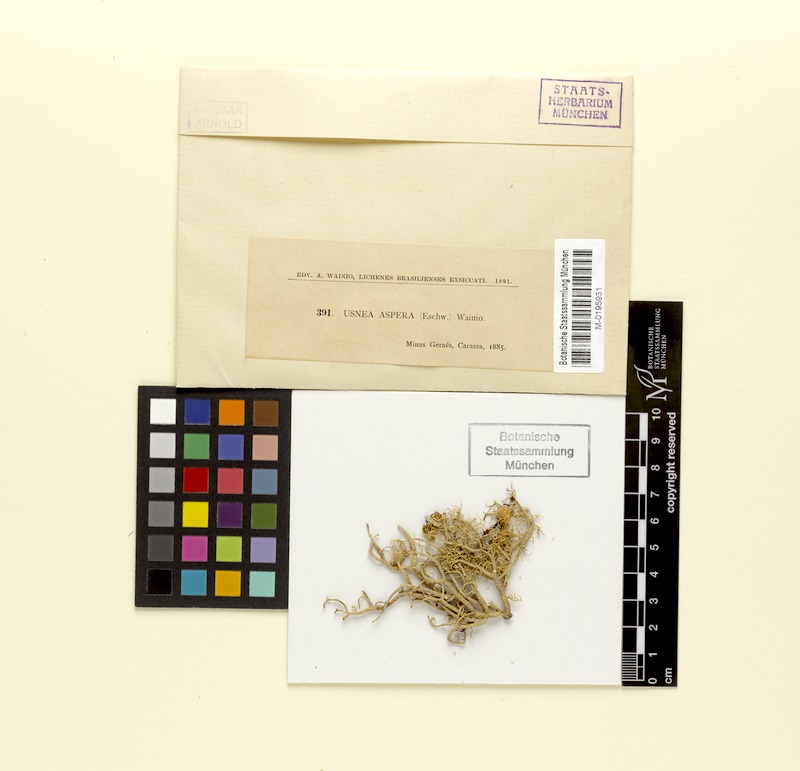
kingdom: Fungi
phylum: Ascomycota
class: Lecanoromycetes
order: Lecanorales
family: Parmeliaceae
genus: Usnea
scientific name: Usnea aspera
